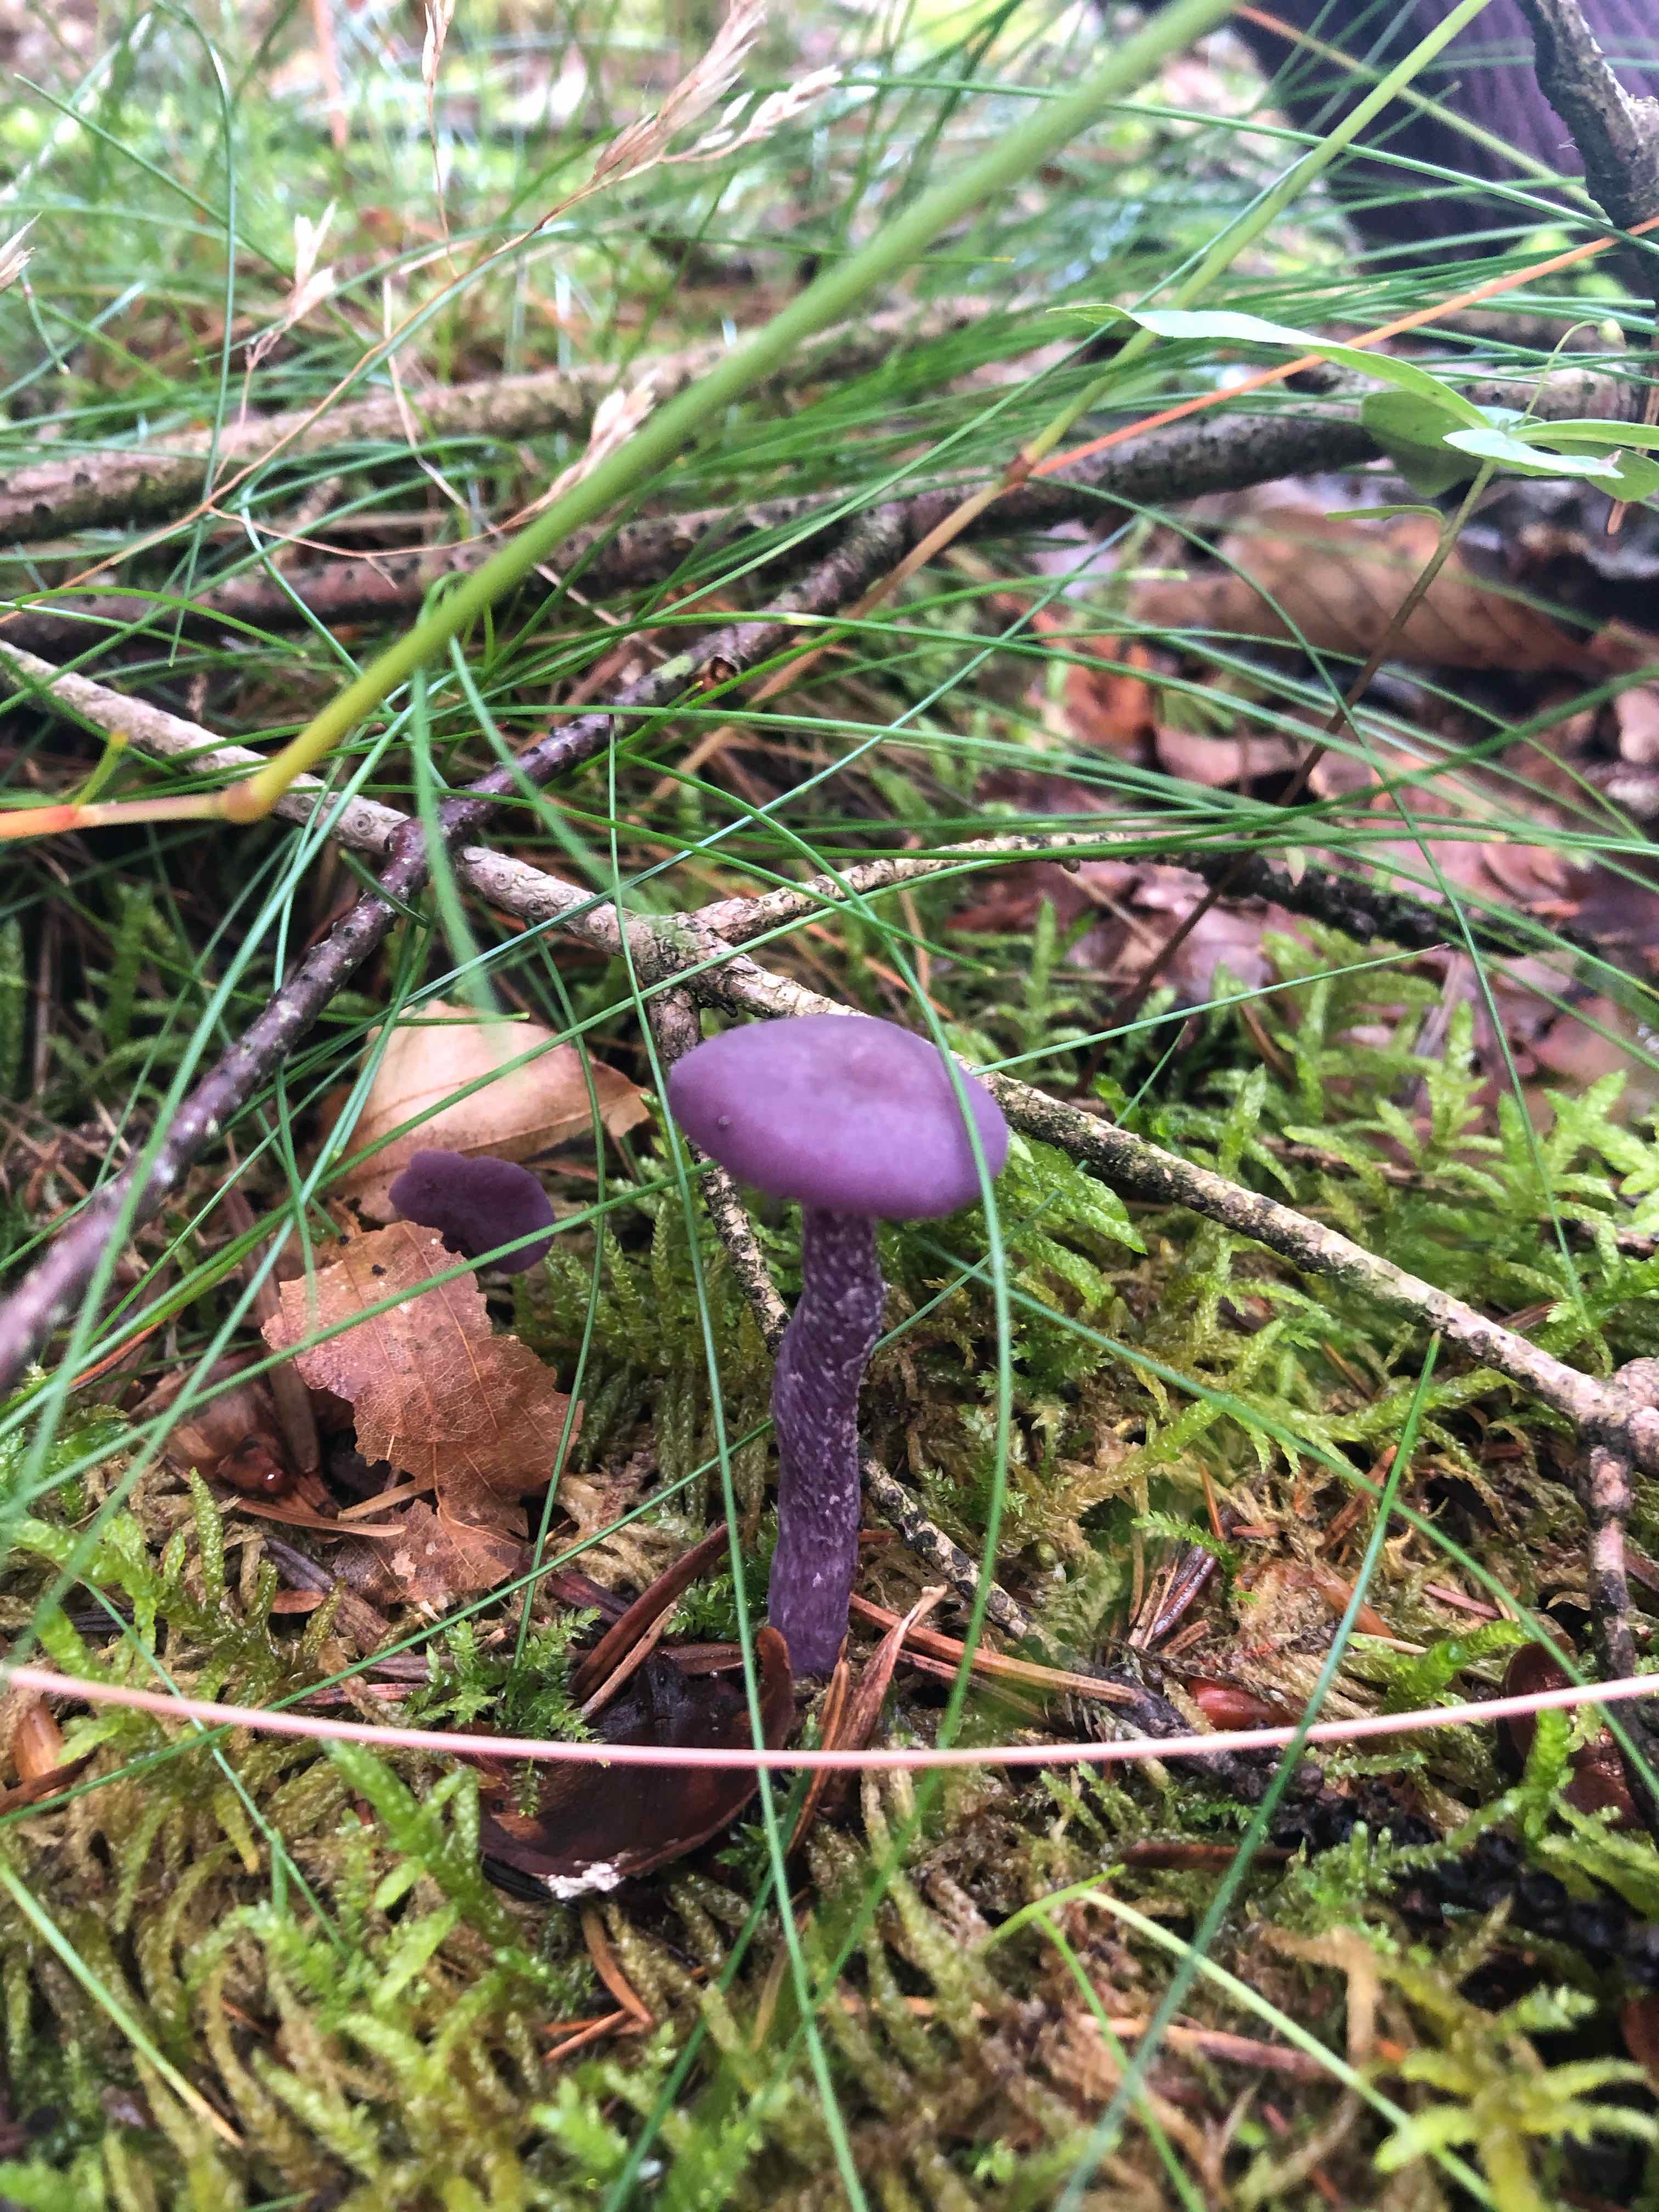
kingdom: Fungi
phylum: Basidiomycota
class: Agaricomycetes
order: Agaricales
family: Hydnangiaceae
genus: Laccaria
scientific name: Laccaria amethystina
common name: violet ametysthat
